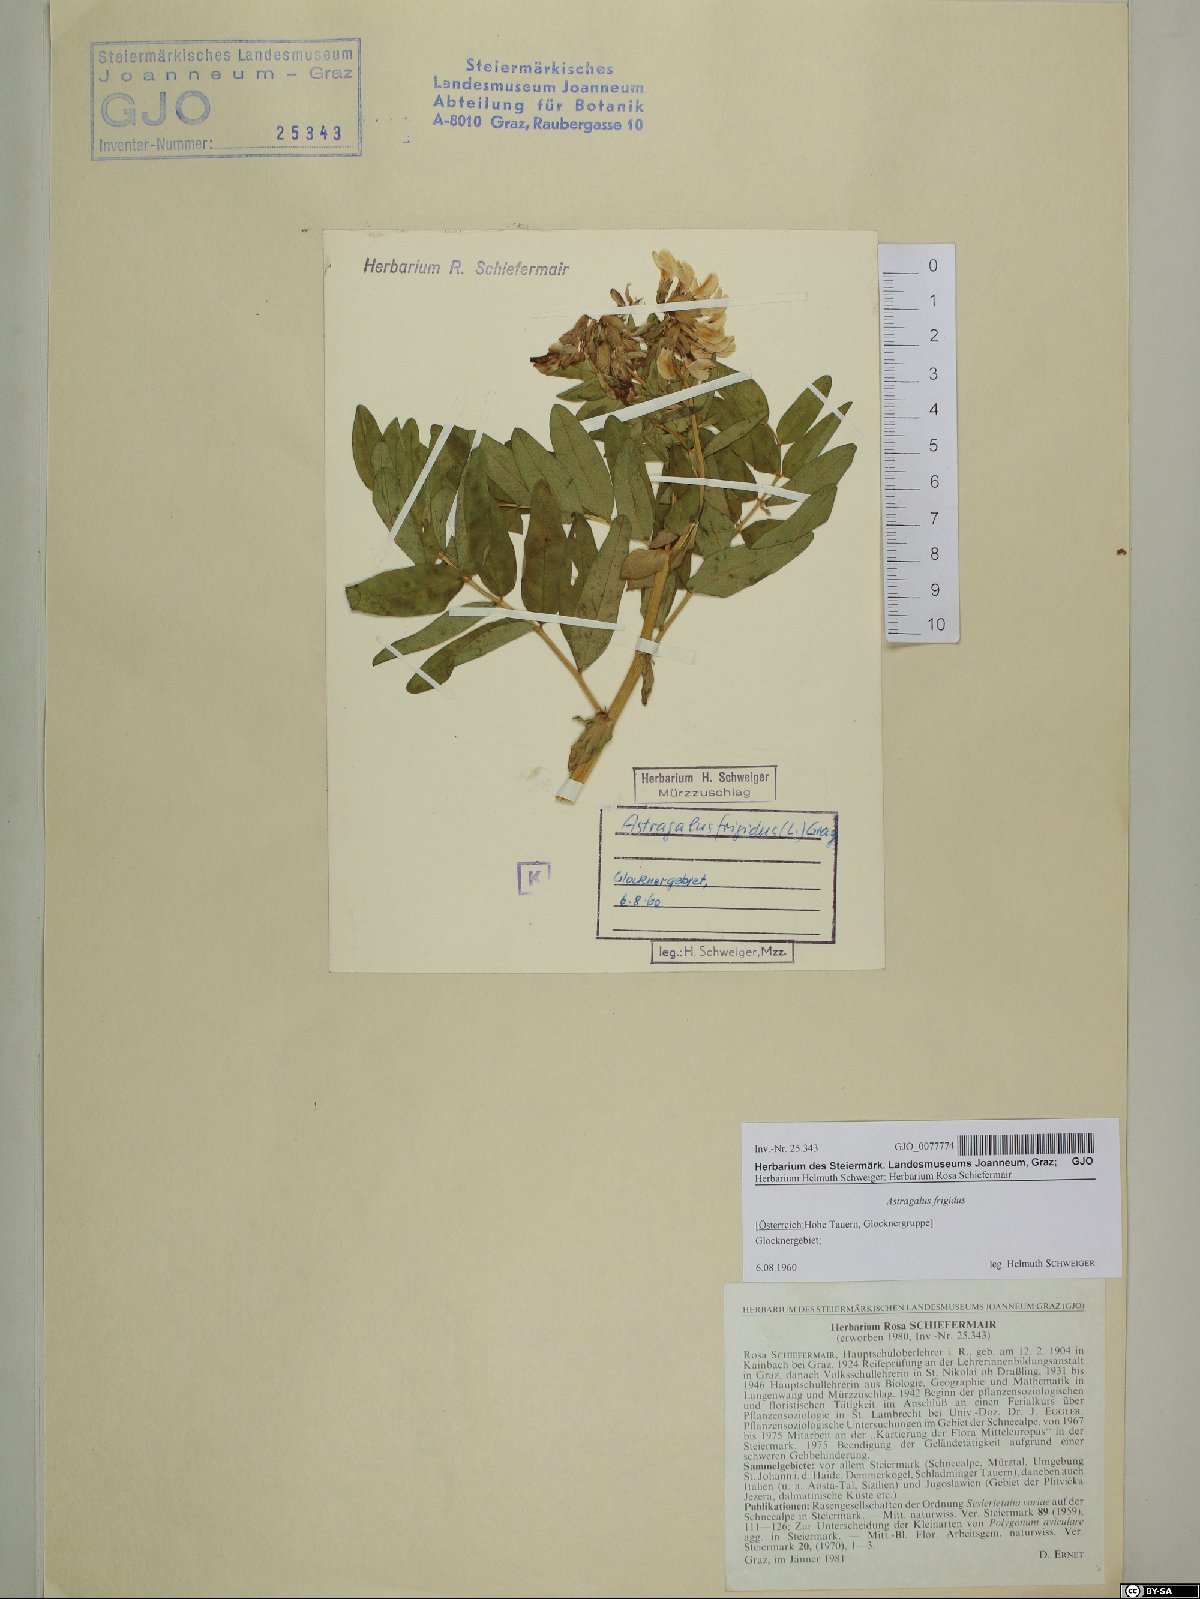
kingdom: Plantae
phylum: Tracheophyta
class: Magnoliopsida
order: Fabales
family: Fabaceae
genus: Astragalus
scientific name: Astragalus frigidus
